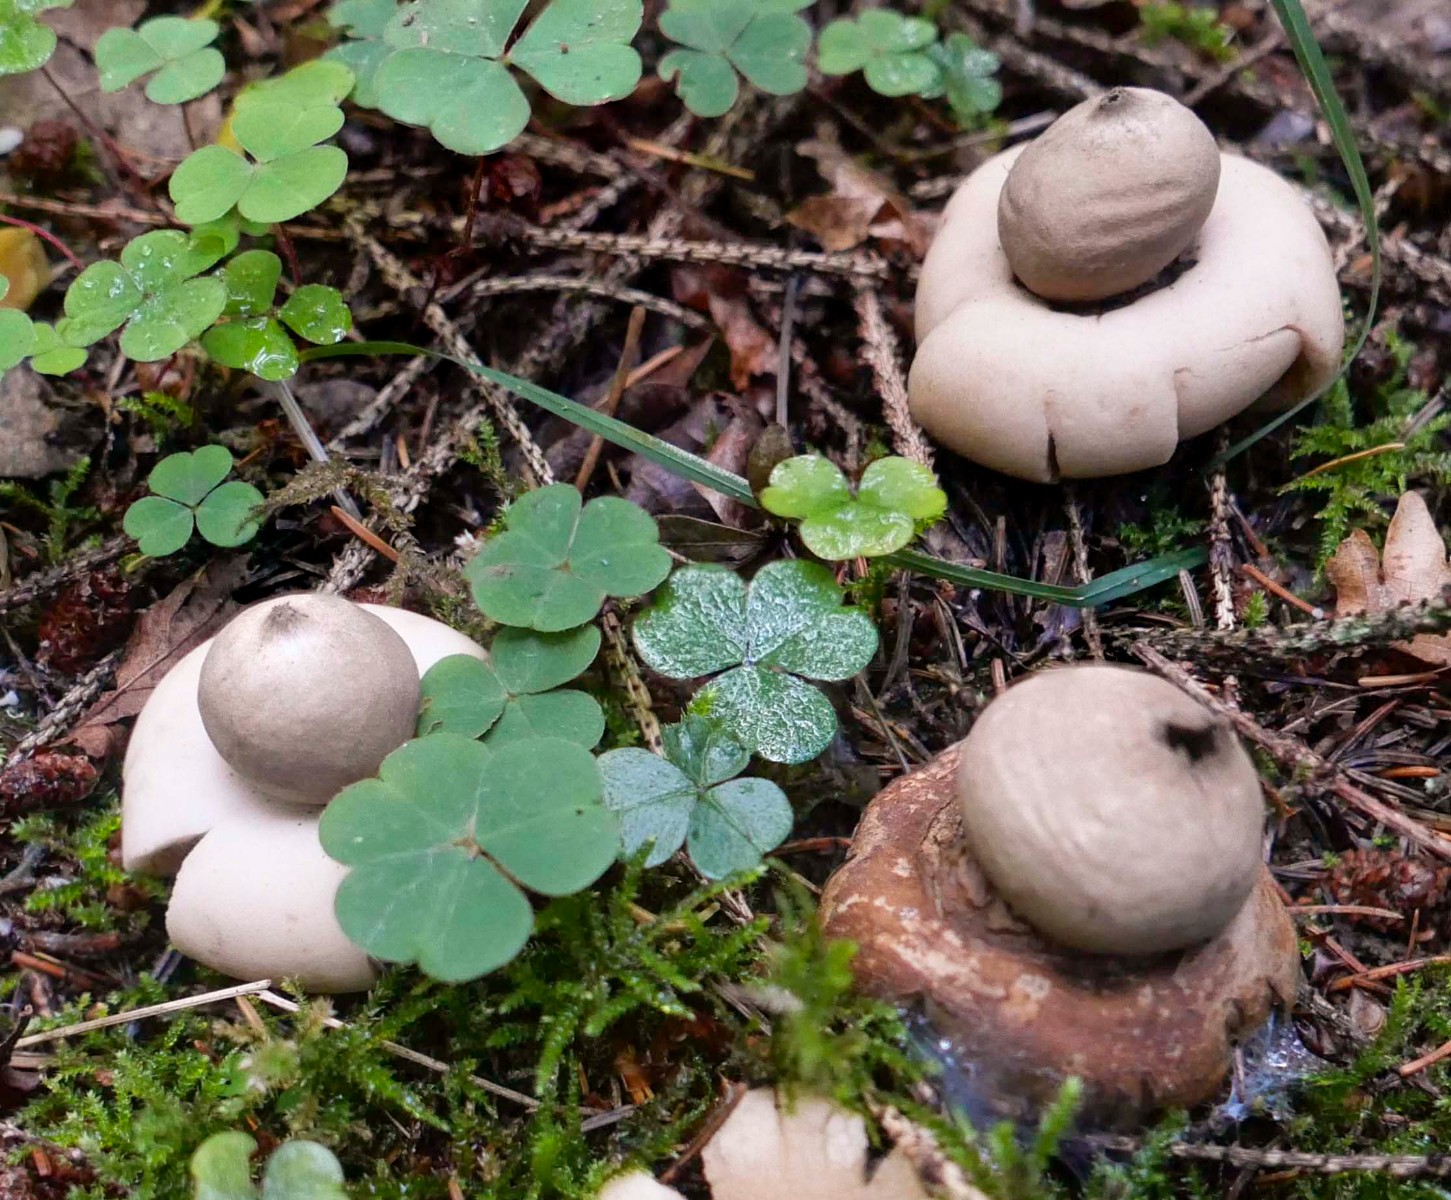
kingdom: Fungi
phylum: Basidiomycota
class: Agaricomycetes
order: Geastrales
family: Geastraceae
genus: Geastrum
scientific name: Geastrum fimbriatum
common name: frynset stjernebold
